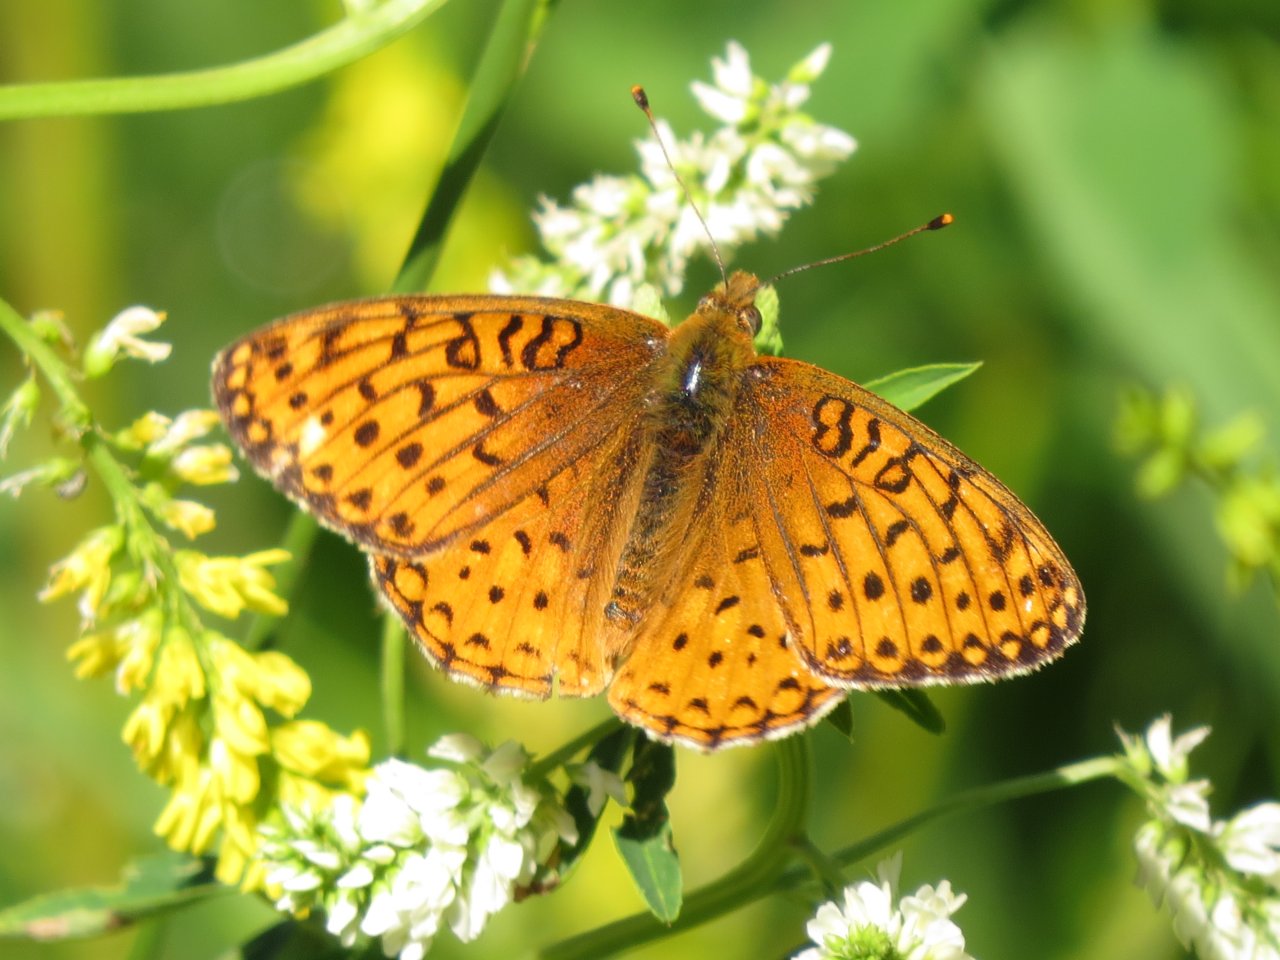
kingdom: Animalia
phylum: Arthropoda
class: Insecta
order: Lepidoptera
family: Nymphalidae
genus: Speyeria
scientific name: Speyeria atlantis
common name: Northwestern Fritillary
